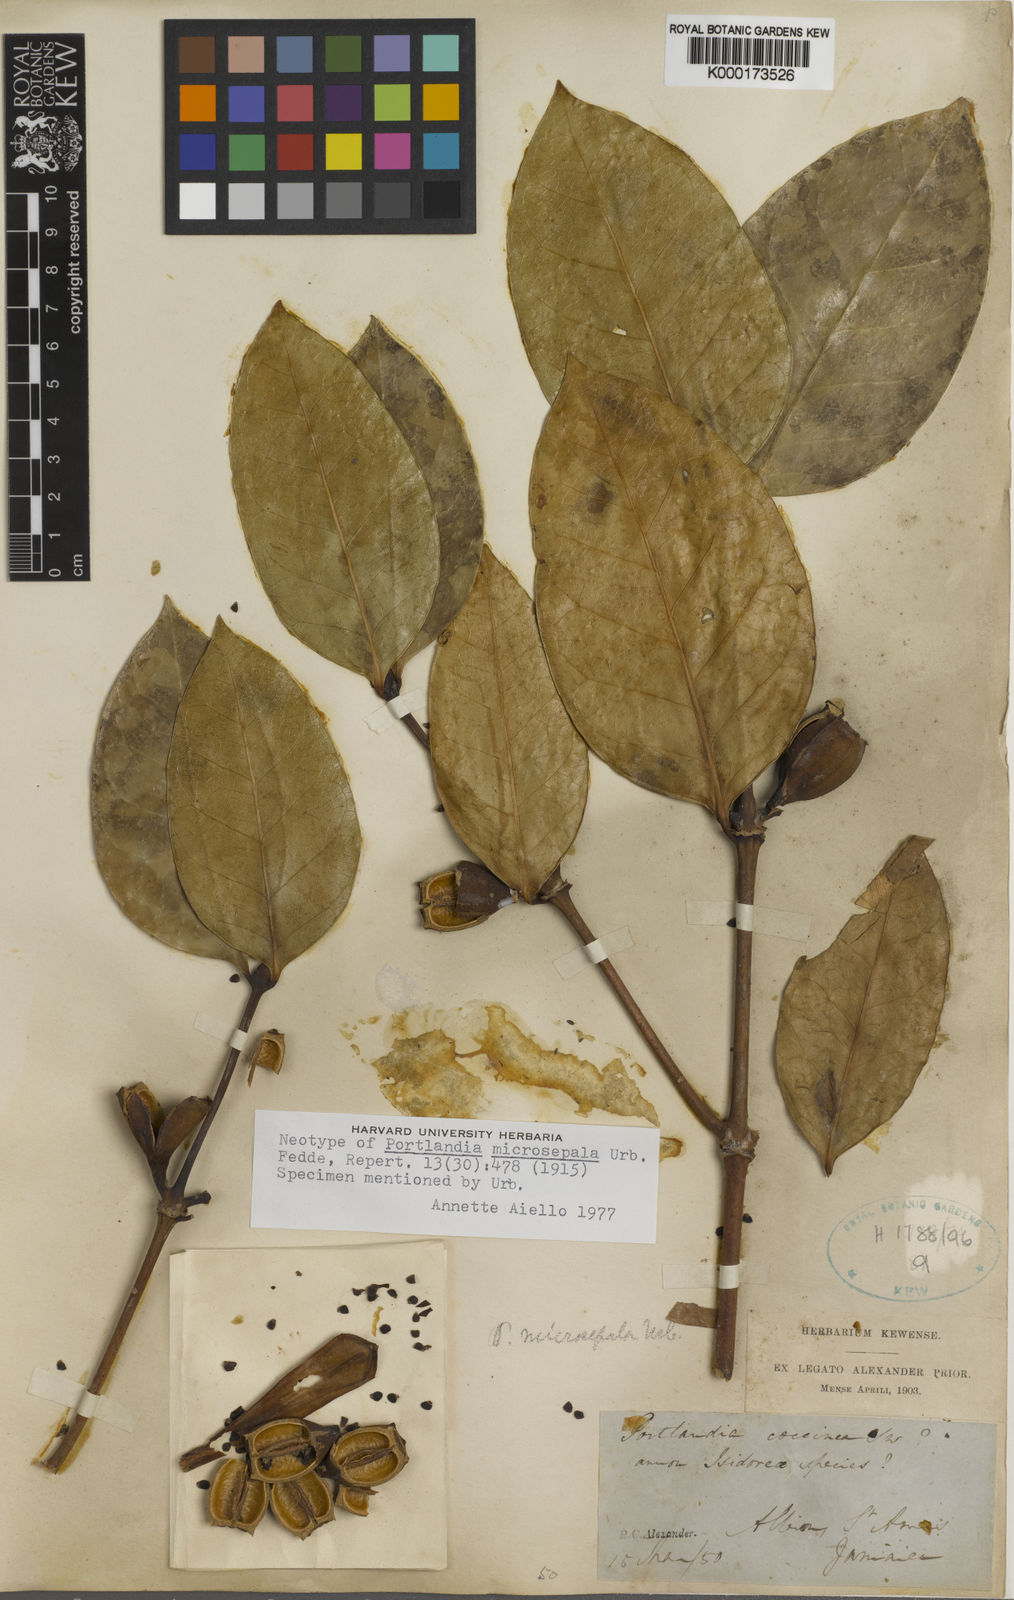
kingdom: Plantae
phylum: Tracheophyta
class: Magnoliopsida
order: Gentianales
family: Rubiaceae
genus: Portlandia
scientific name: Portlandia microsepala
